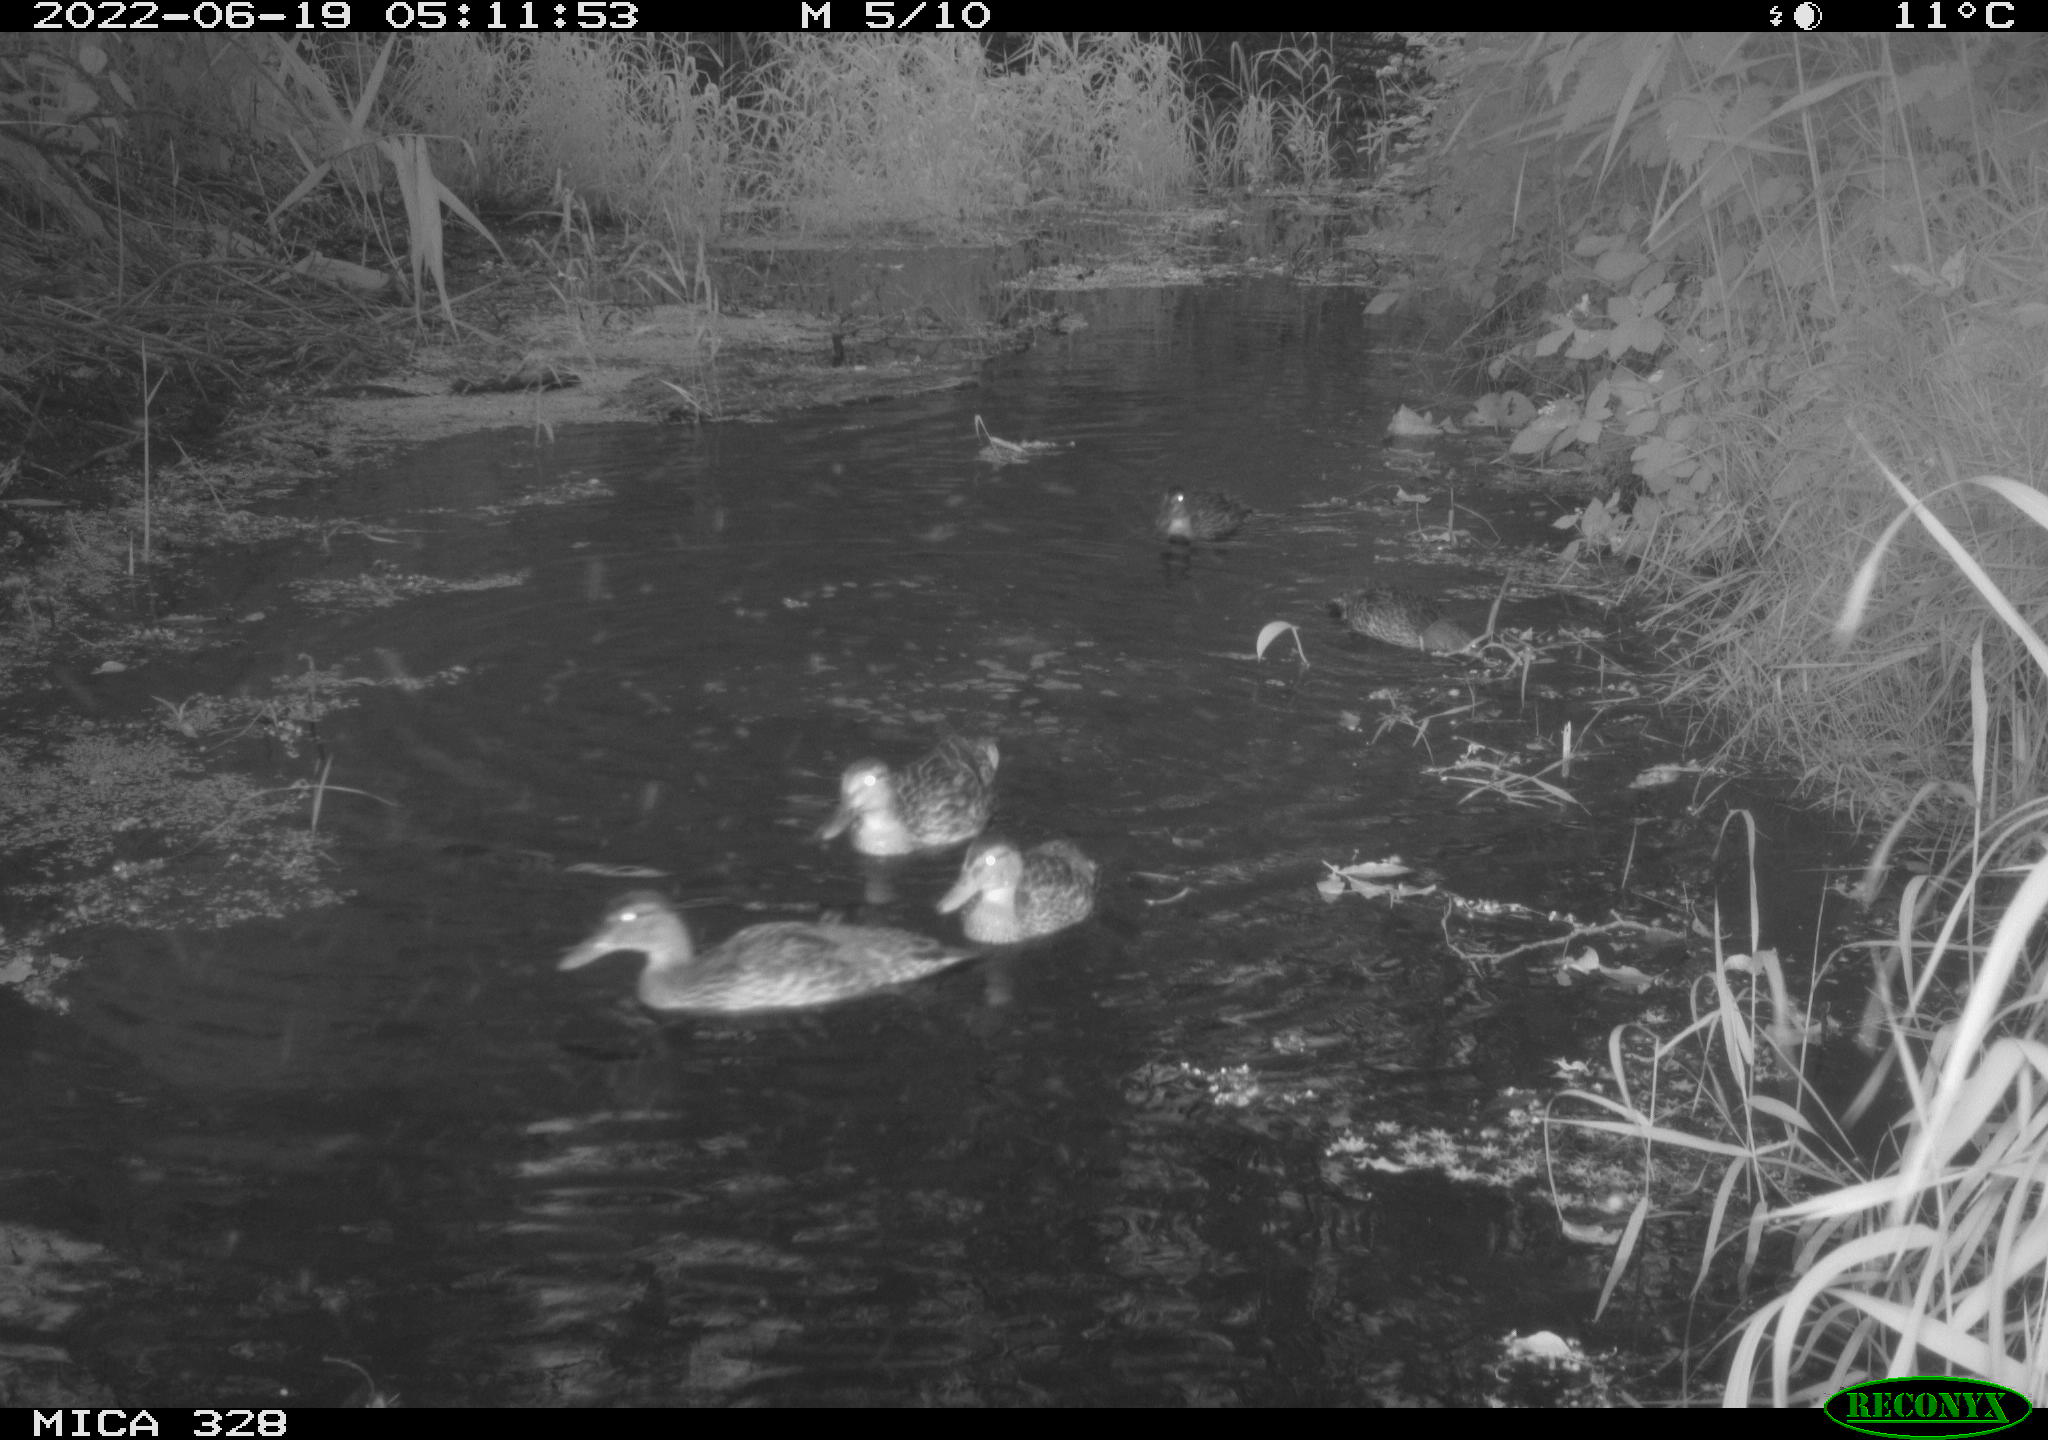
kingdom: Animalia
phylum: Chordata
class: Aves
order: Anseriformes
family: Anatidae
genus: Anas
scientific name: Anas
